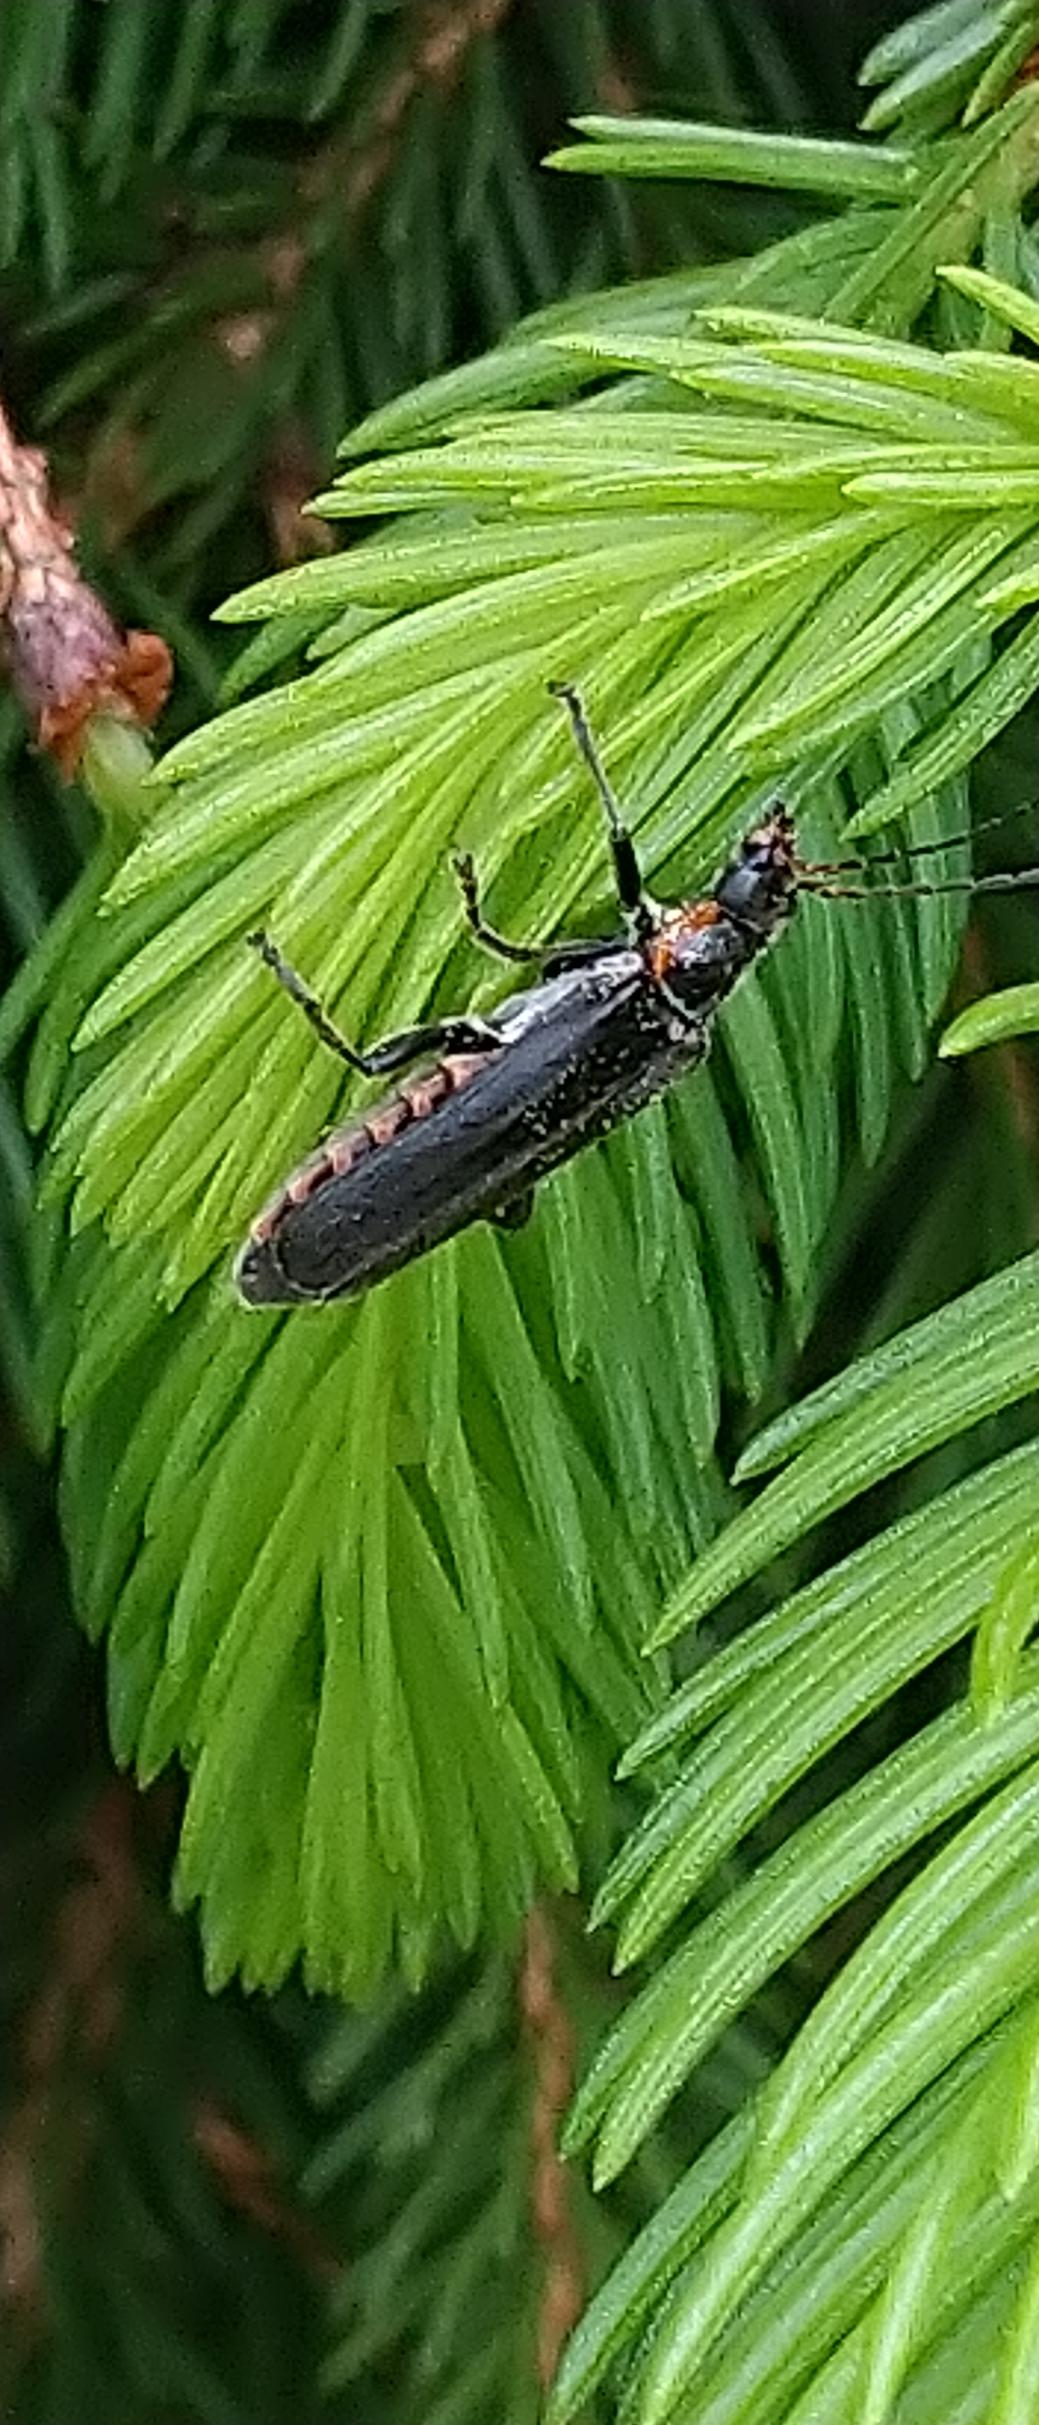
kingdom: Animalia
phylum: Arthropoda
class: Insecta
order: Coleoptera
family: Cantharidae
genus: Cantharis
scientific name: Cantharis obscura
